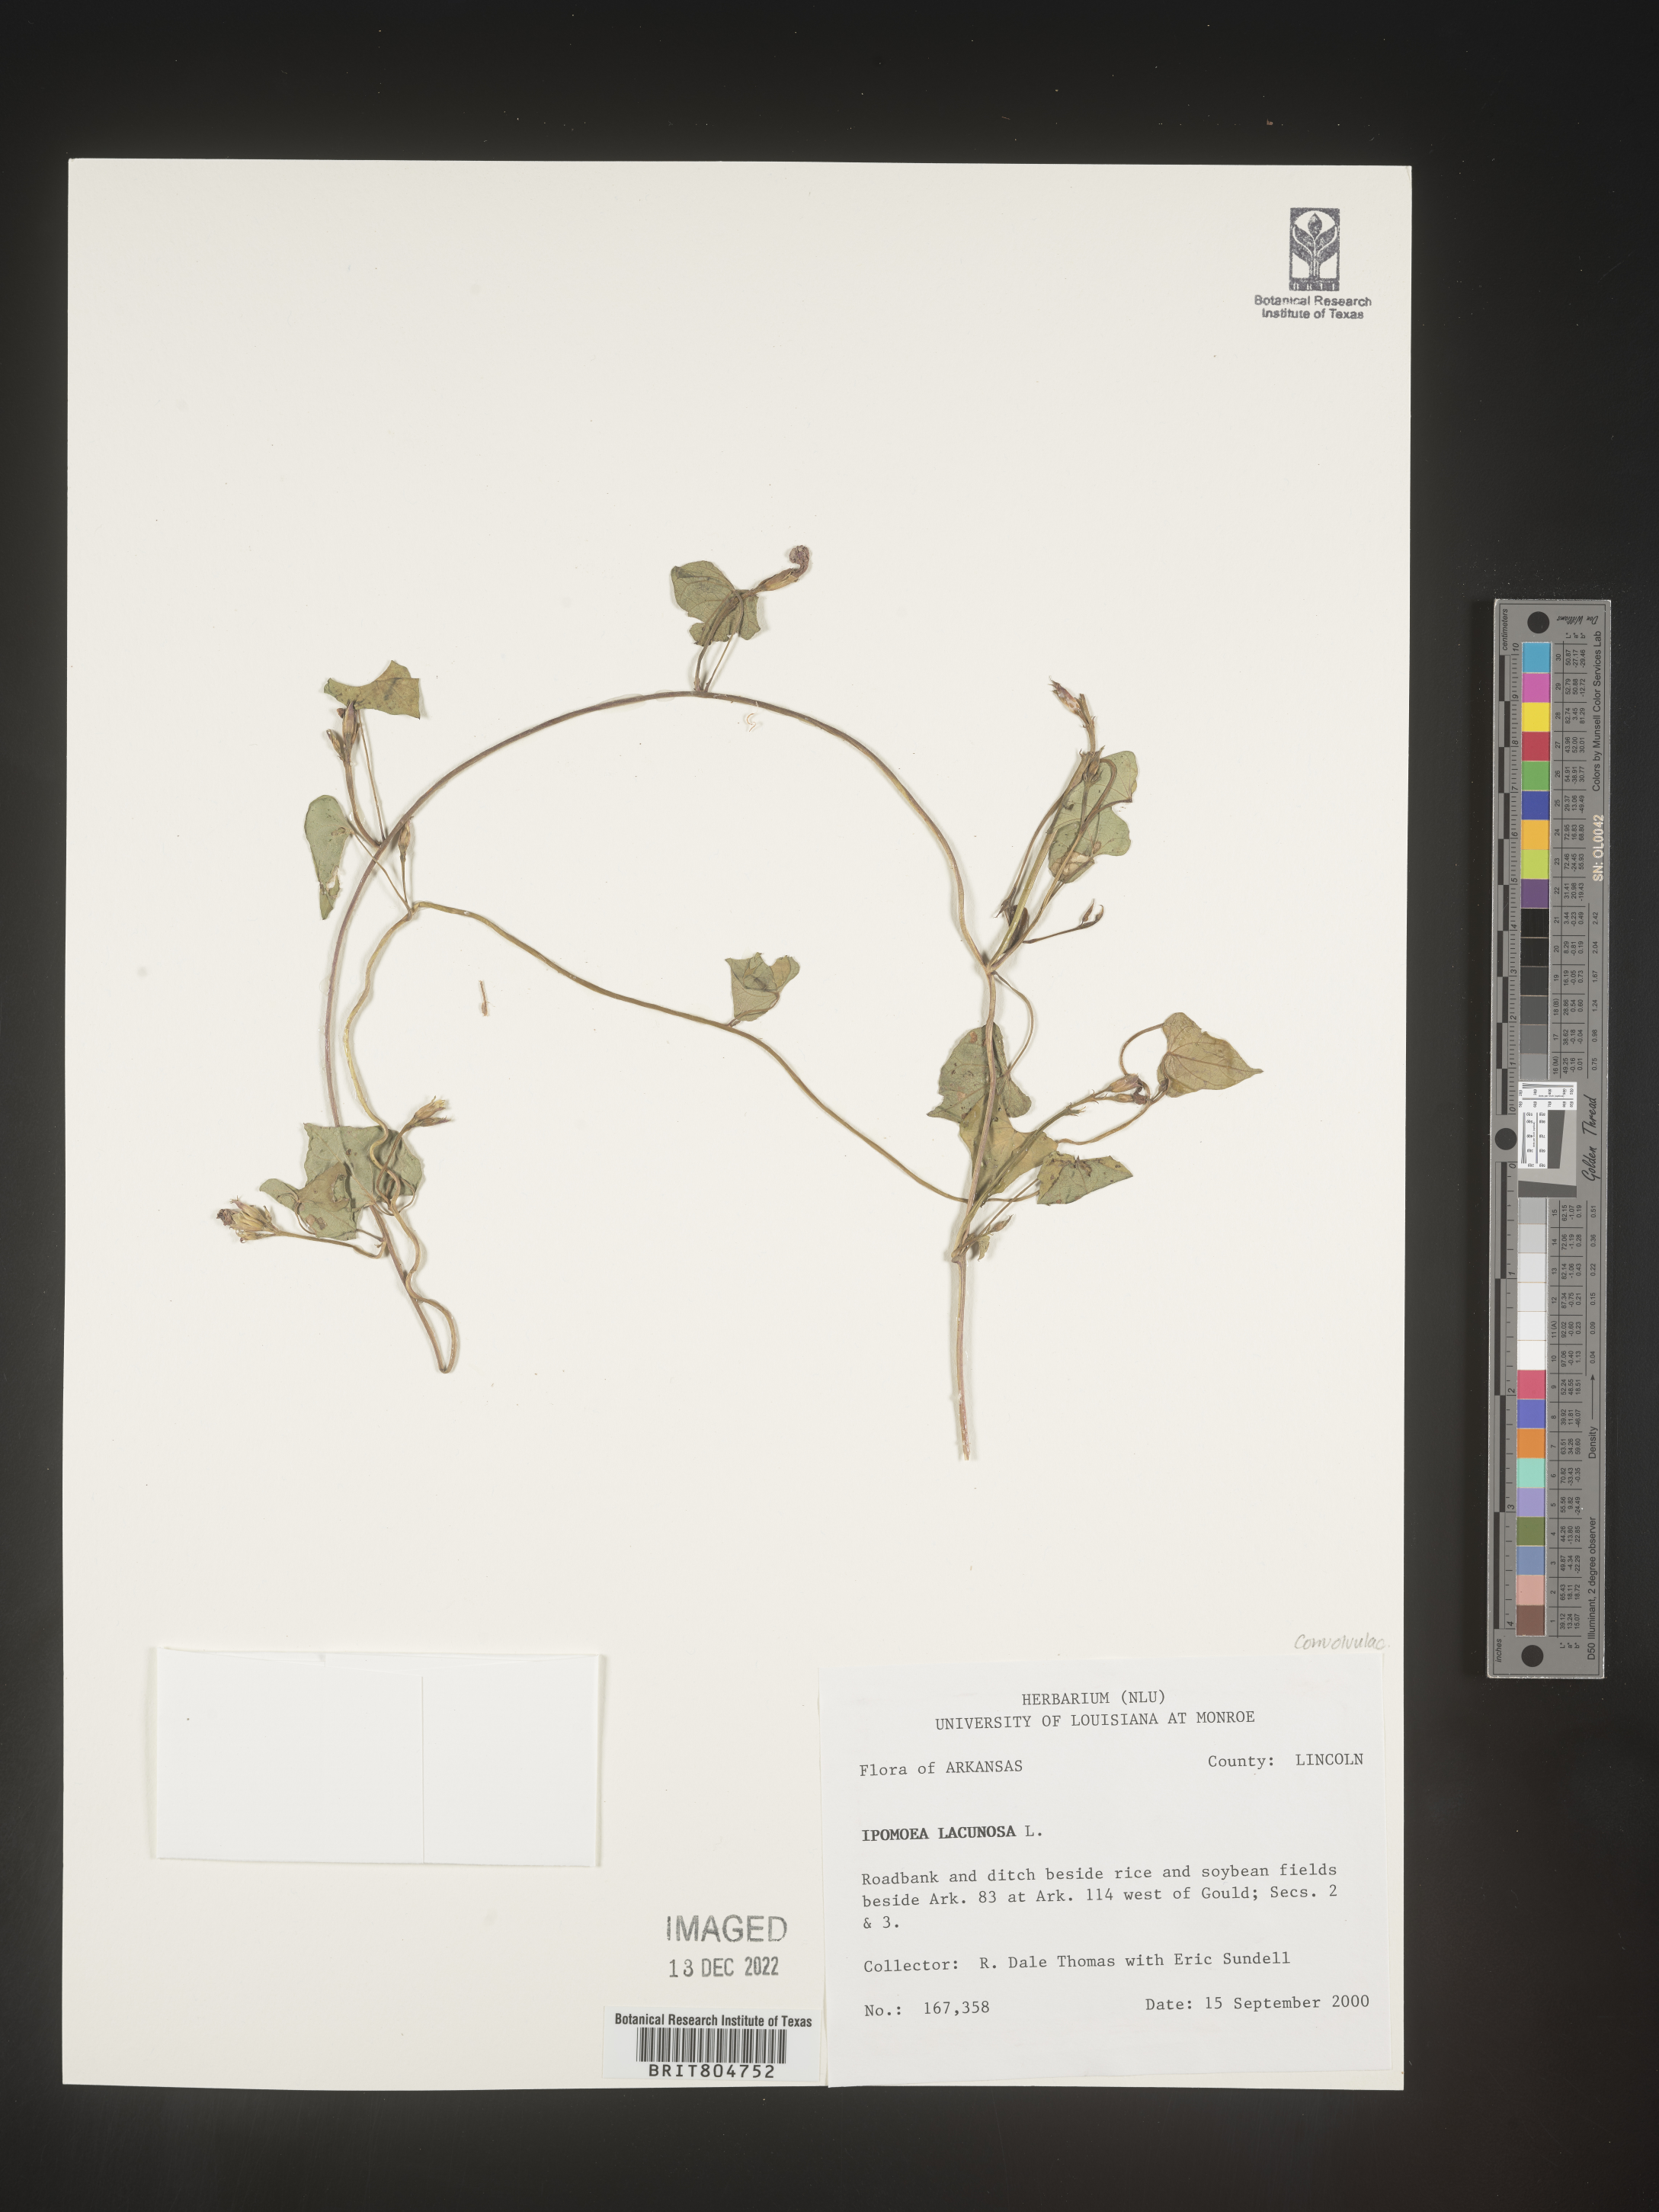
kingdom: Plantae
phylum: Tracheophyta
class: Magnoliopsida
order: Solanales
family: Convolvulaceae
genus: Ipomoea
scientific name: Ipomoea lacunosa
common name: White morning-glory
